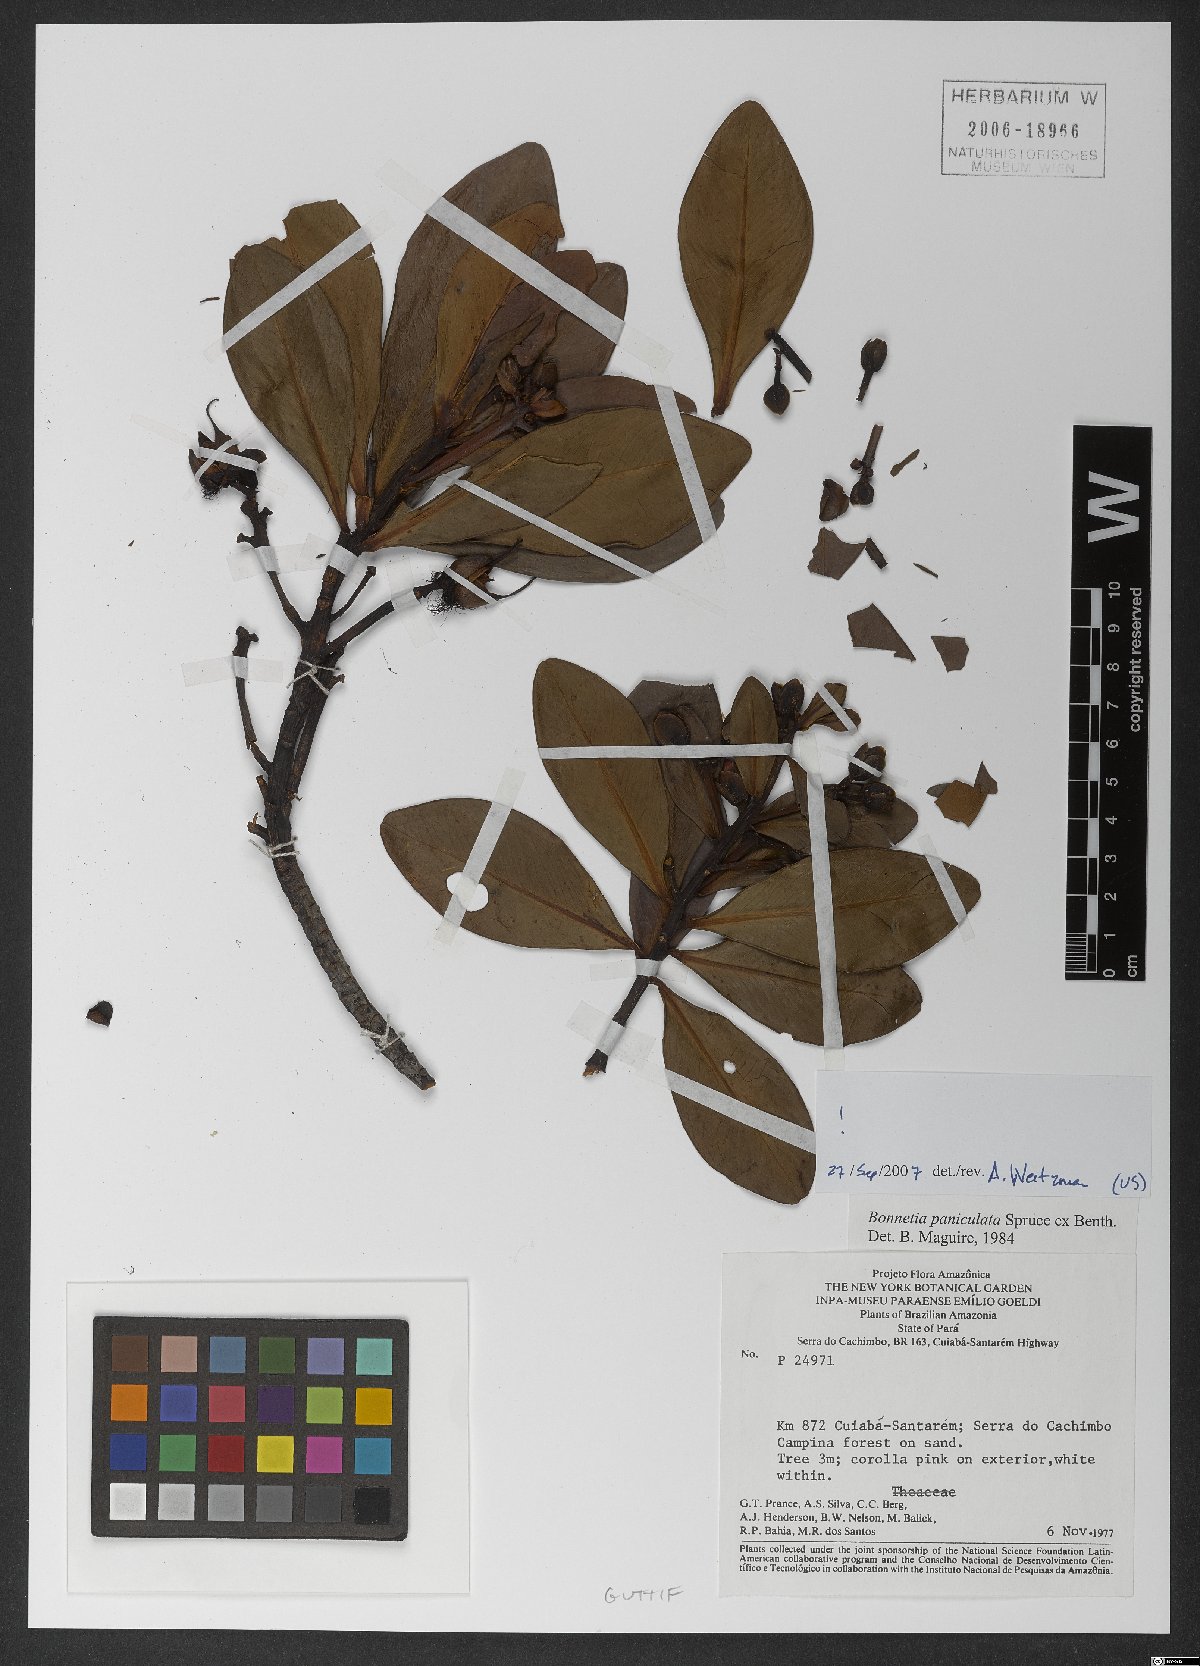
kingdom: Plantae
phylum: Tracheophyta
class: Magnoliopsida
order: Malpighiales
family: Bonnetiaceae
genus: Bonnetia
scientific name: Bonnetia paniculata
